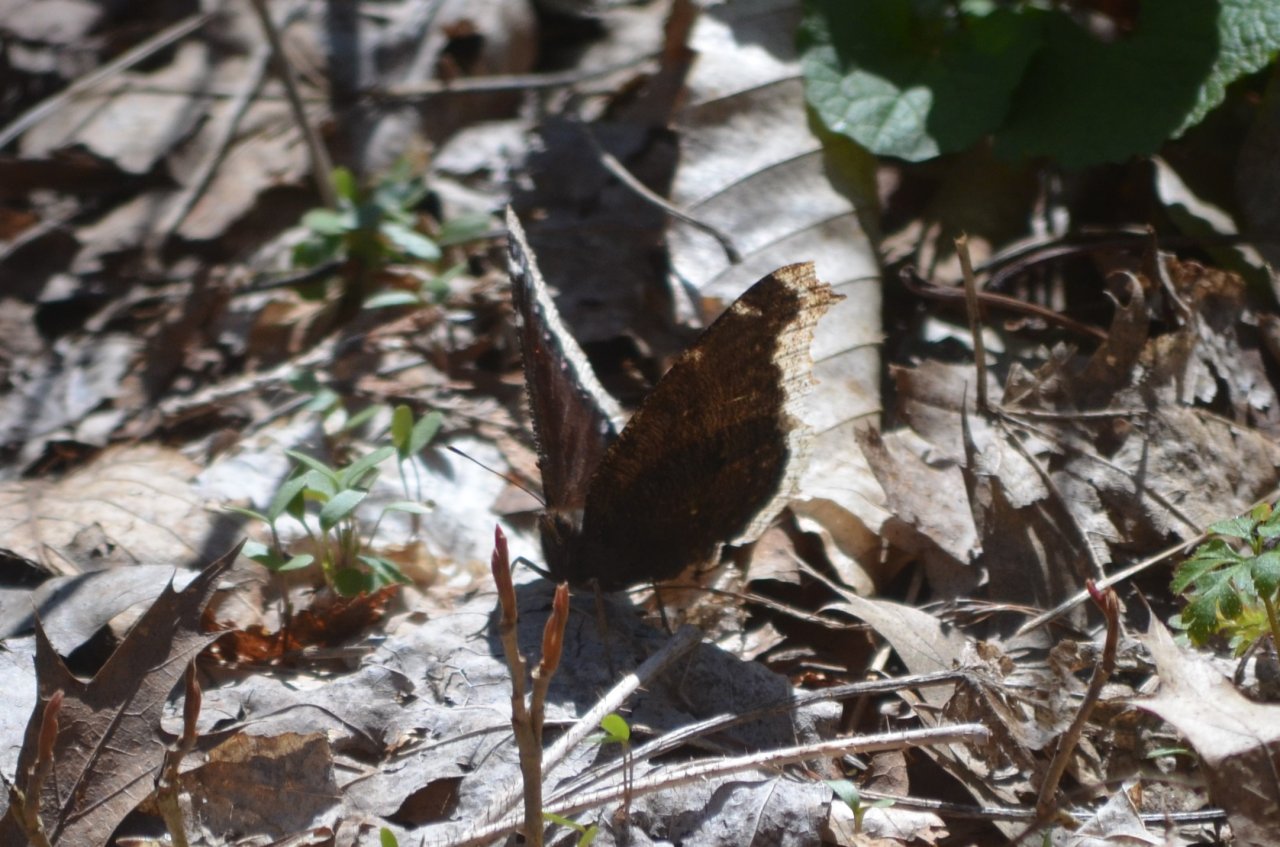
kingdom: Animalia
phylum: Arthropoda
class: Insecta
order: Lepidoptera
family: Nymphalidae
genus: Nymphalis
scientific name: Nymphalis antiopa
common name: Mourning Cloak
